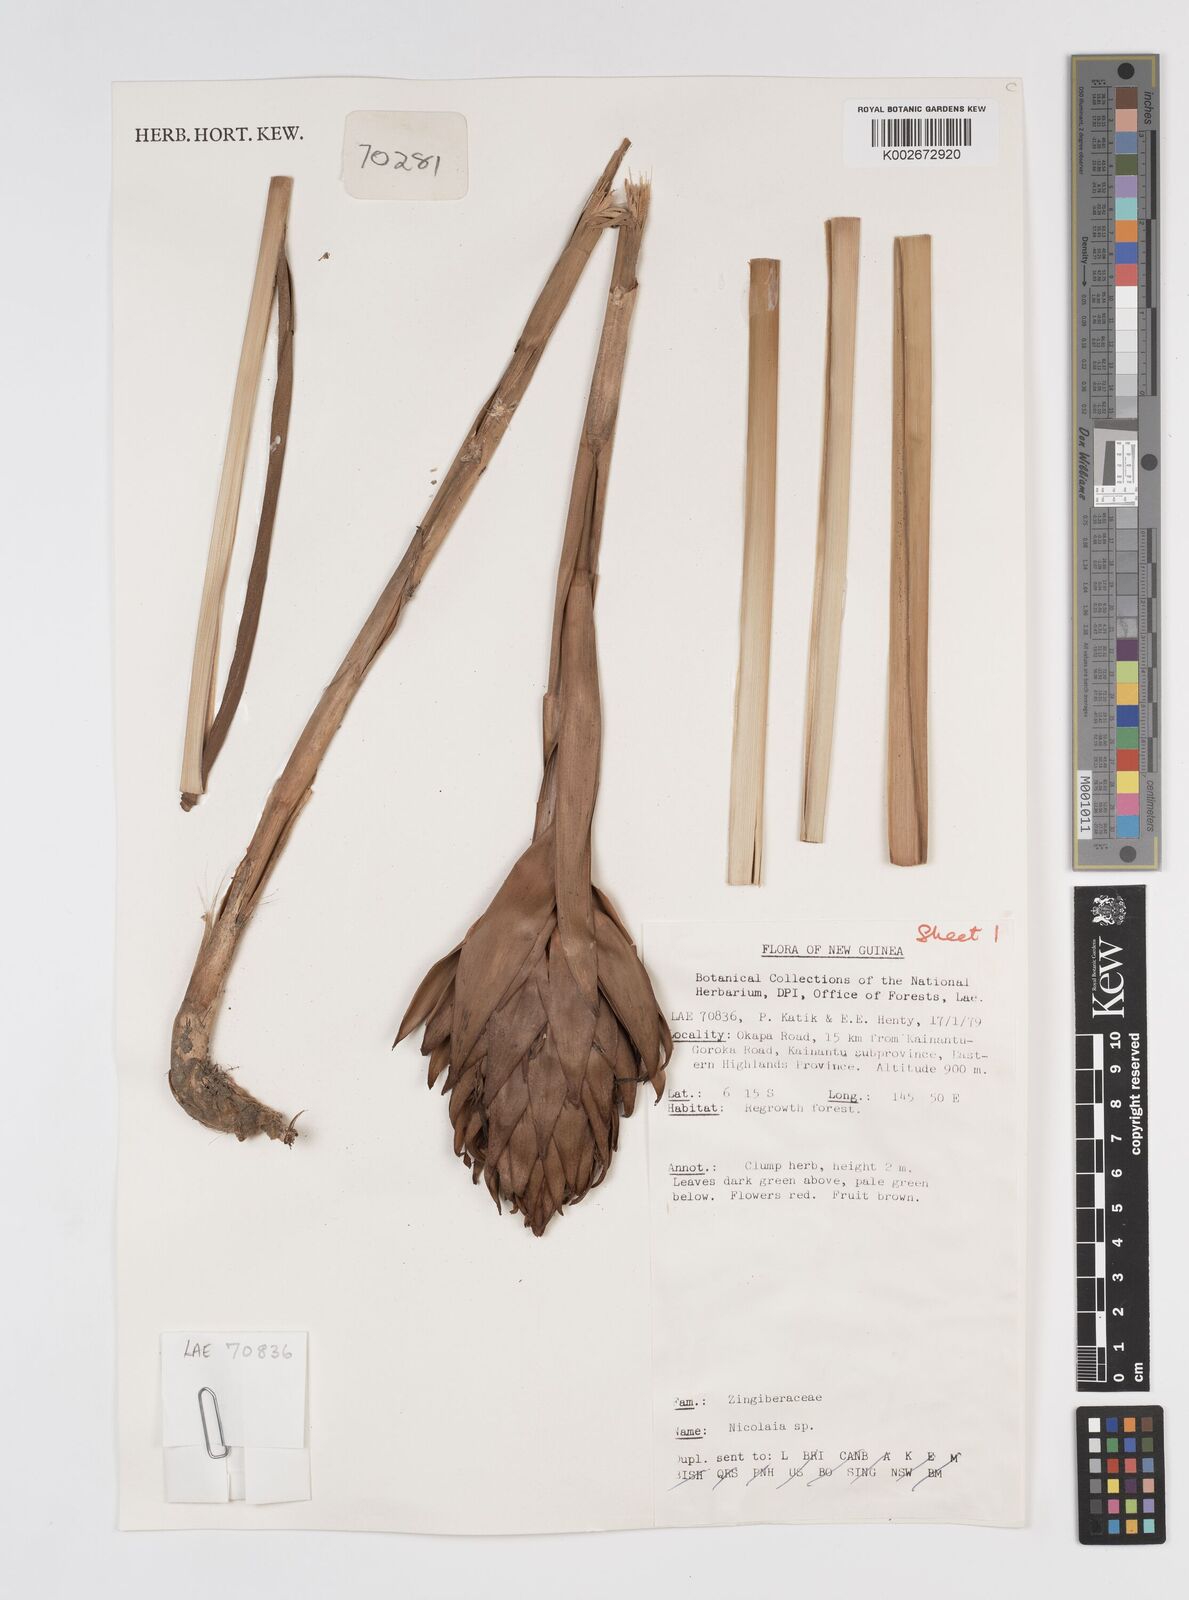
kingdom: Plantae
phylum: Tracheophyta
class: Liliopsida
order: Zingiberales
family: Zingiberaceae
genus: Etlingera
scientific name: Etlingera
